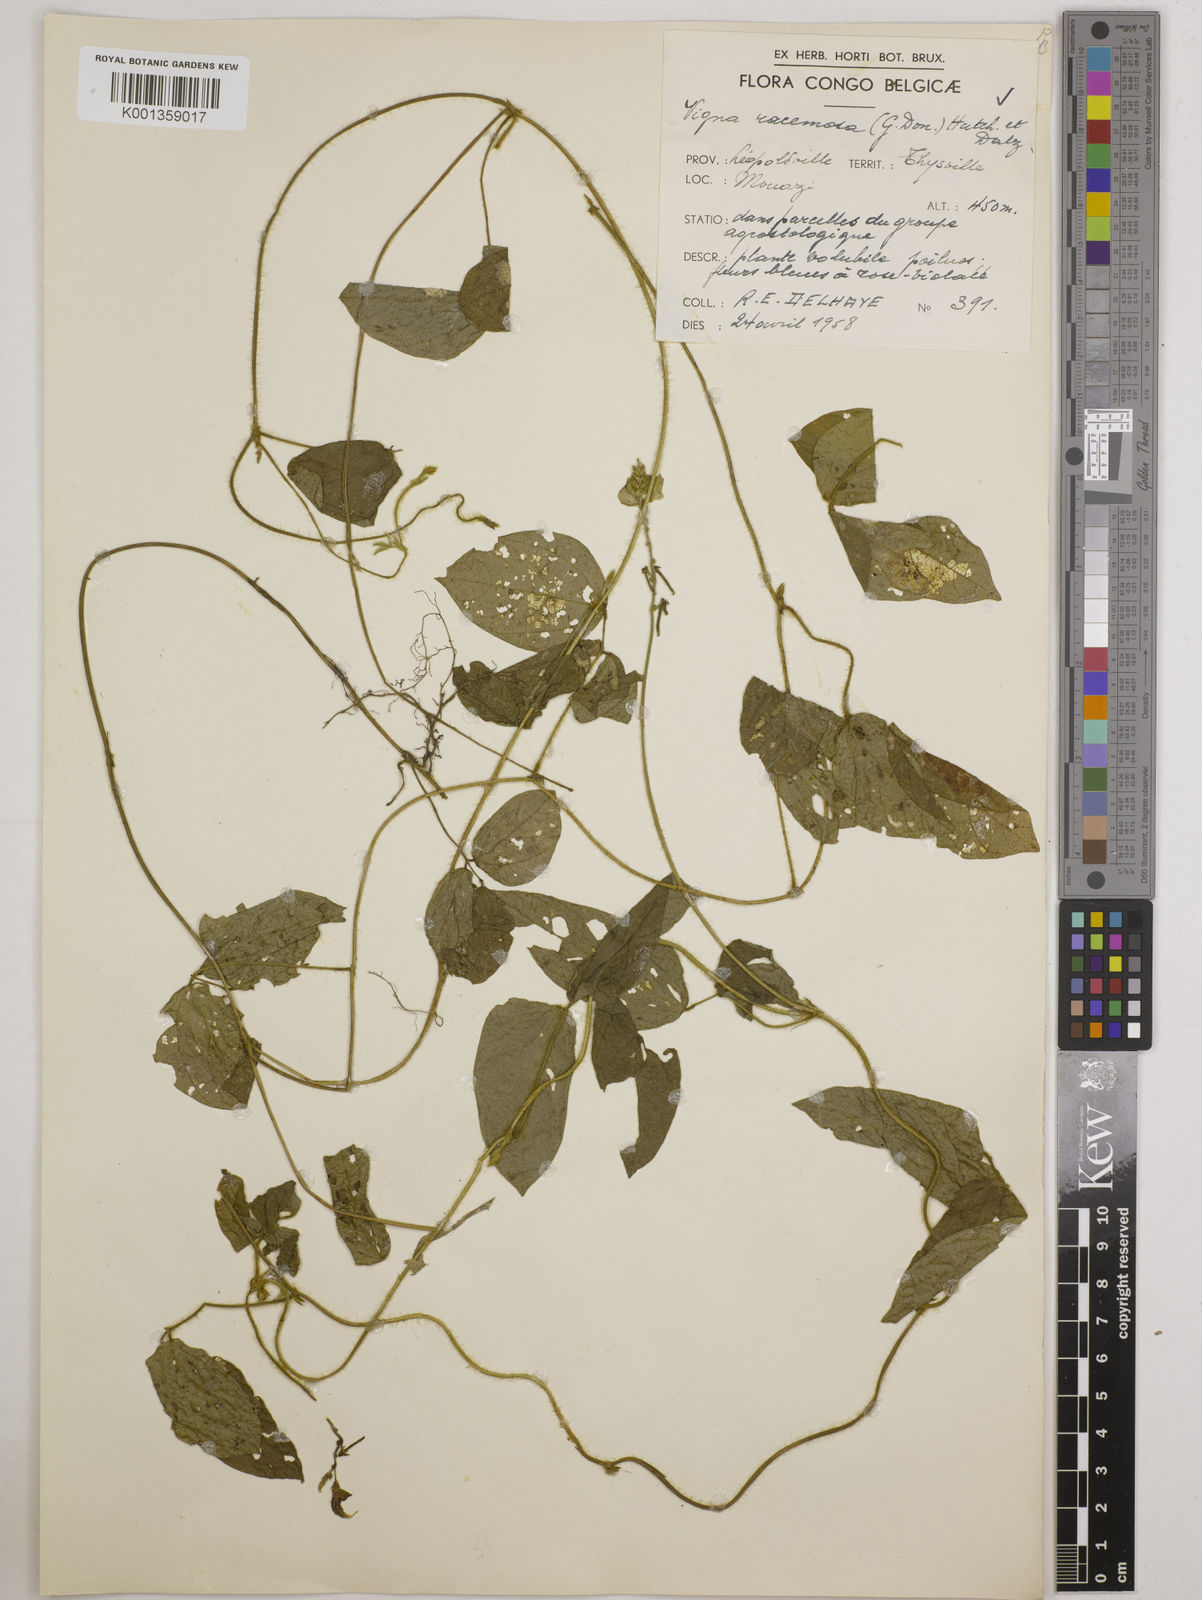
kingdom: Plantae
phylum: Tracheophyta
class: Magnoliopsida
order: Fabales
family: Fabaceae
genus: Vigna
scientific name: Vigna racemosa
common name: Beans not eaten
